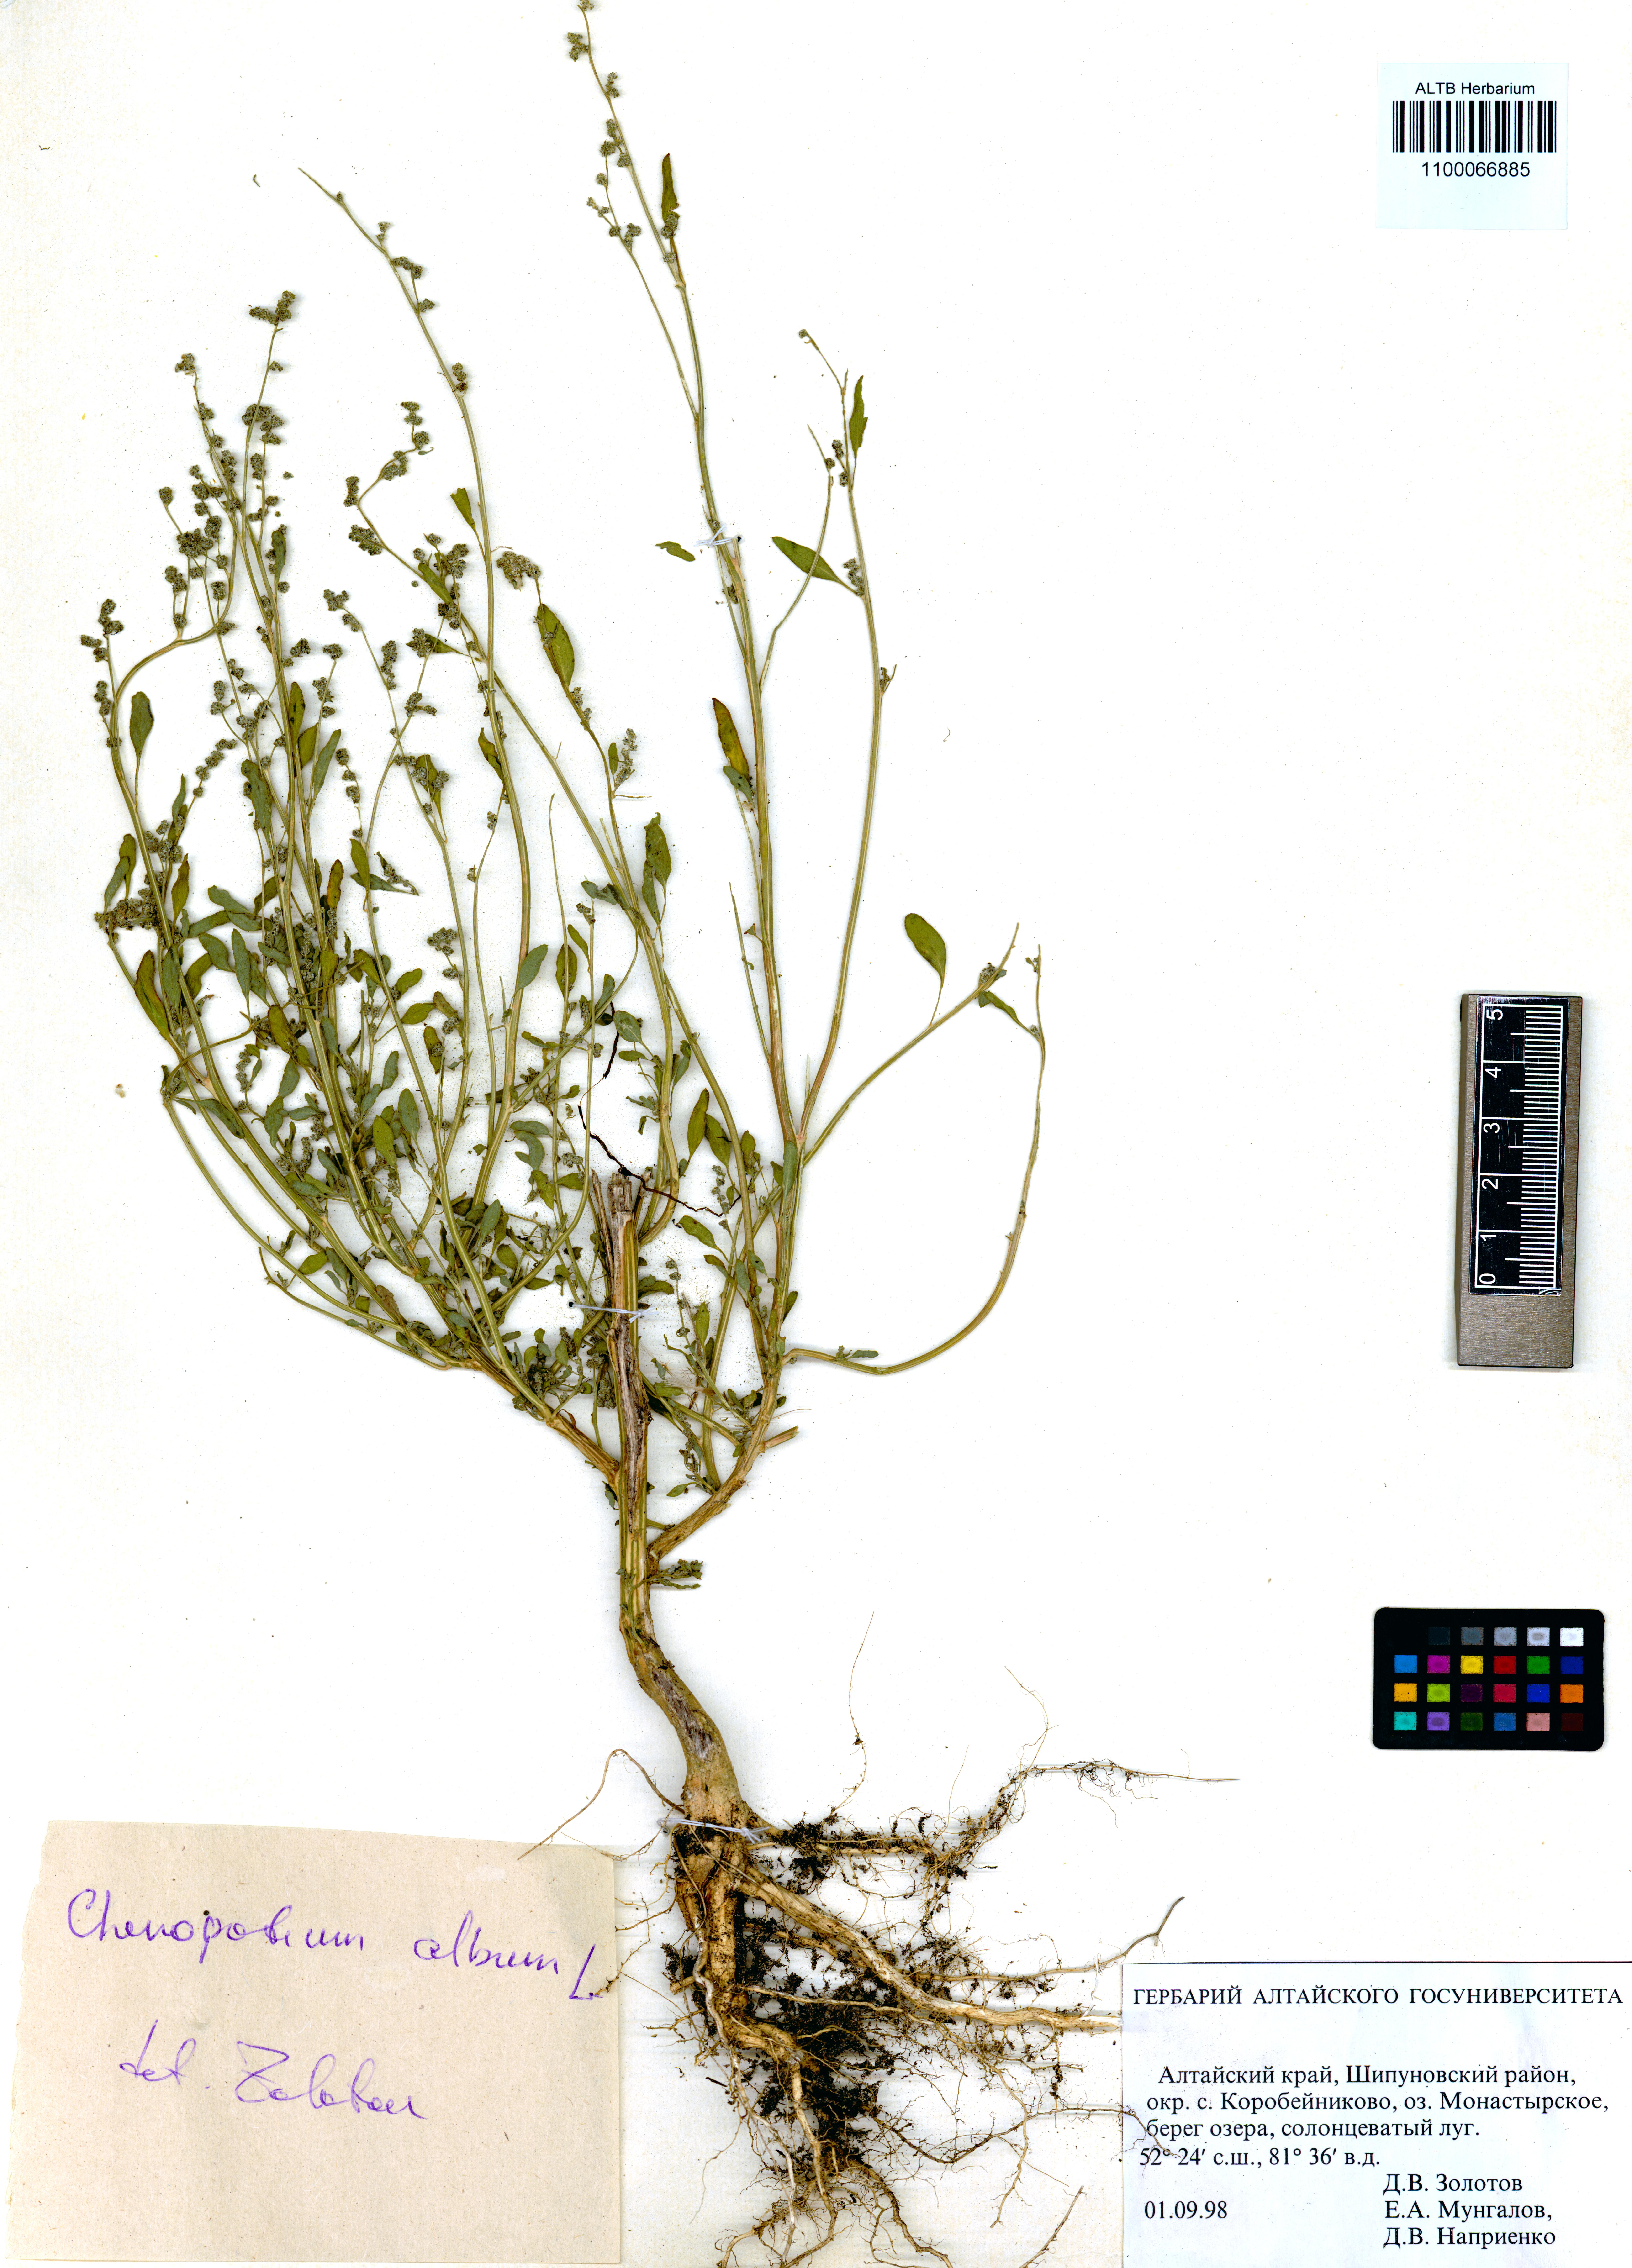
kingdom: Plantae
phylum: Tracheophyta
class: Magnoliopsida
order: Caryophyllales
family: Amaranthaceae
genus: Chenopodium
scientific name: Chenopodium album
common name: Fat-hen
